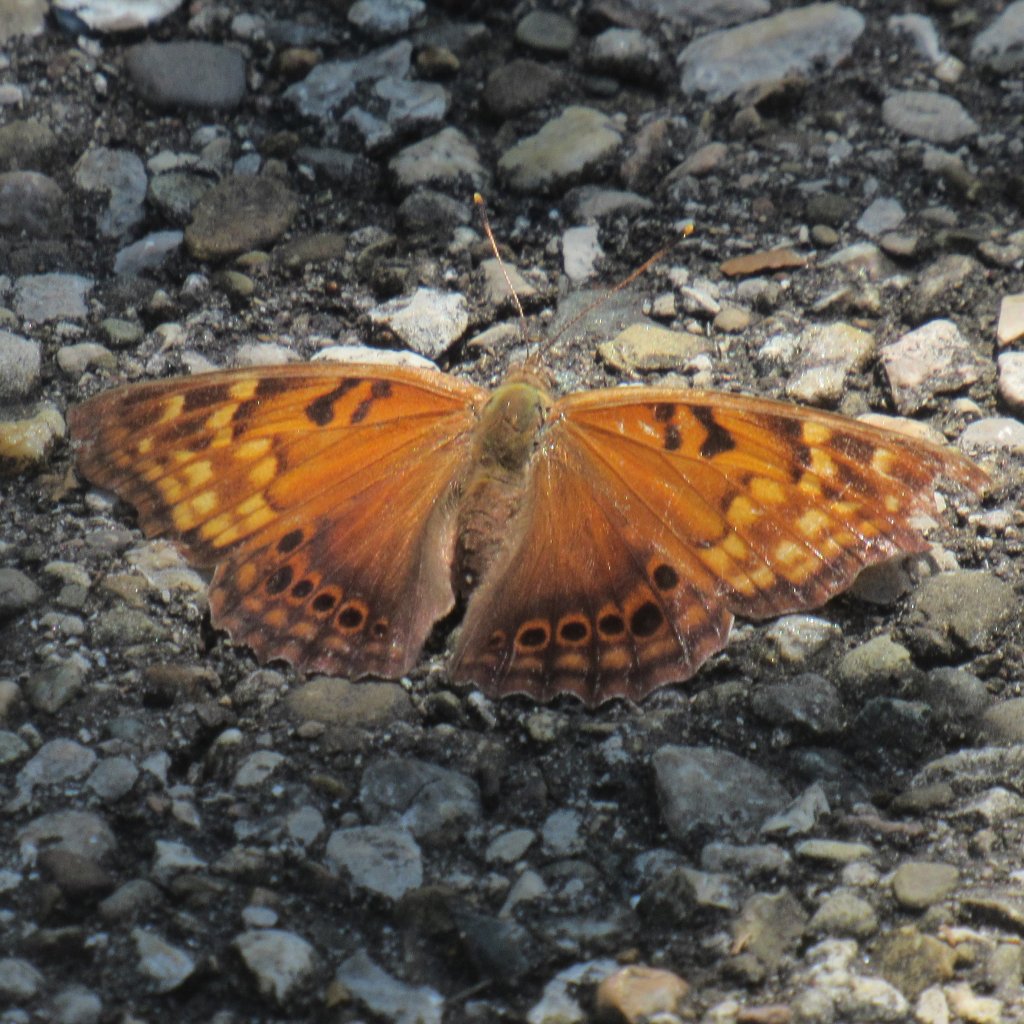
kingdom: Animalia
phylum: Arthropoda
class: Insecta
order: Lepidoptera
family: Nymphalidae
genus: Asterocampa
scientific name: Asterocampa clyton
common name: Tawny Emperor
